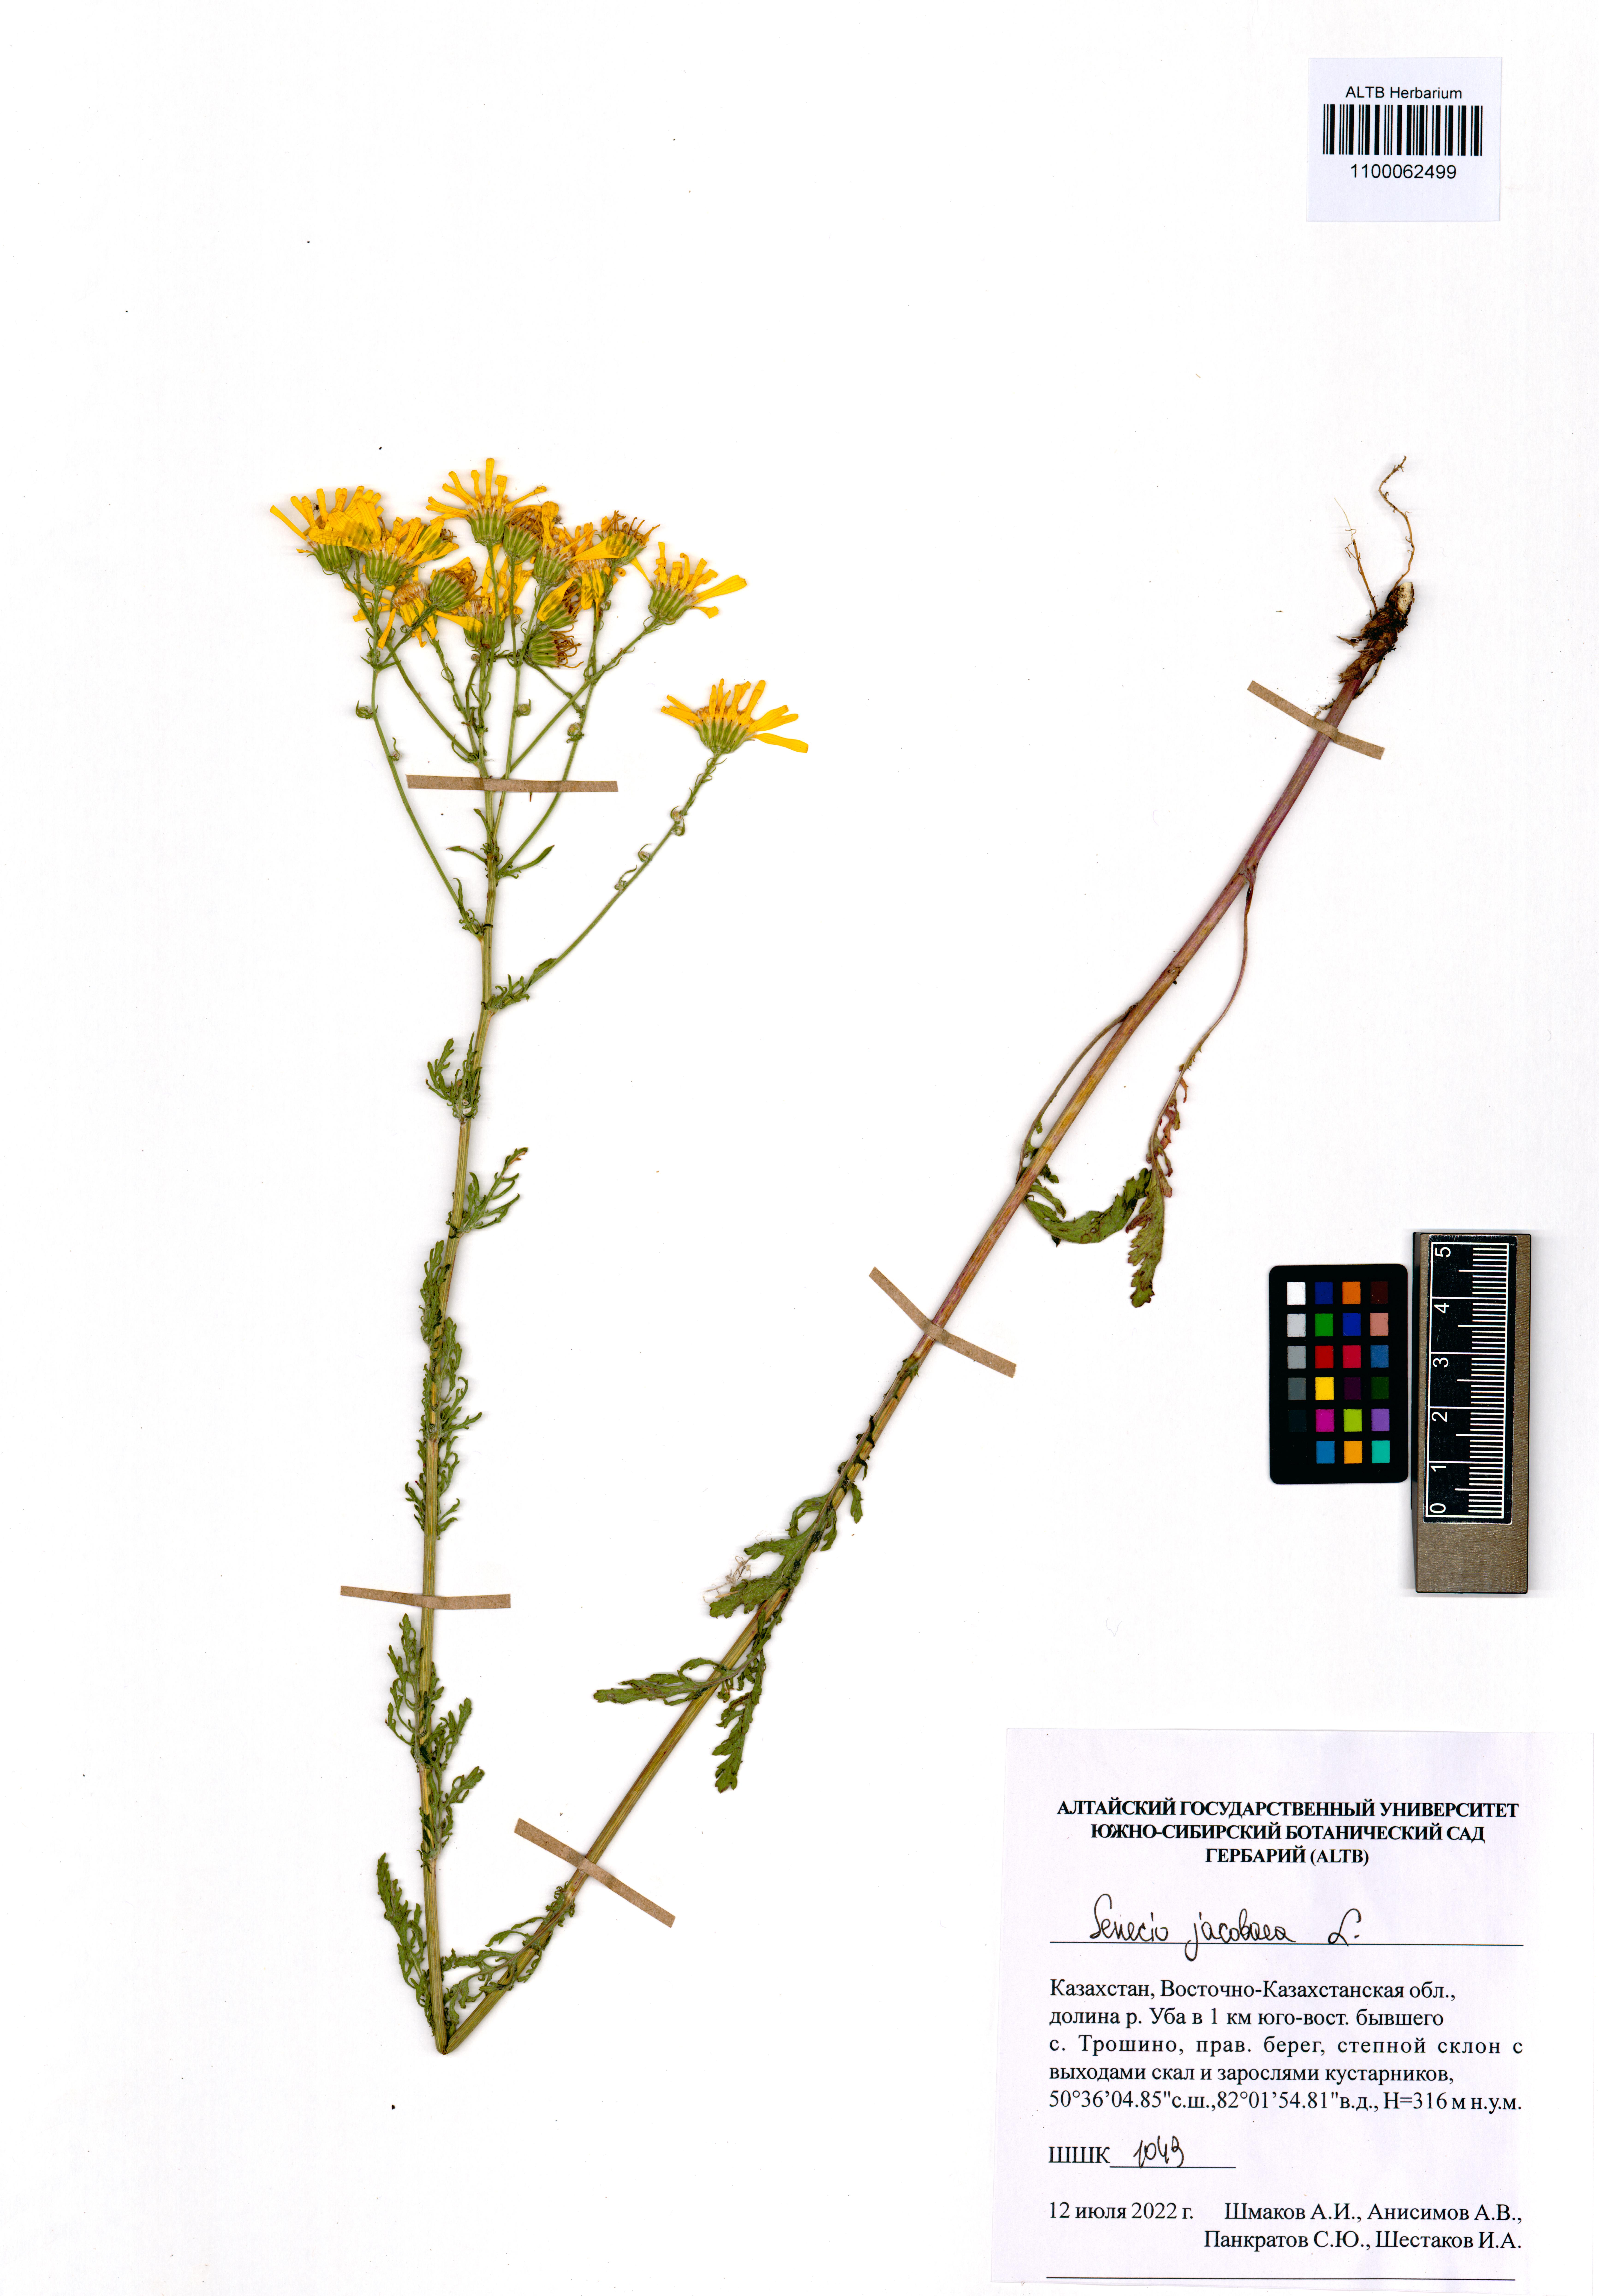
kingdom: Plantae
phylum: Tracheophyta
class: Magnoliopsida
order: Asterales
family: Asteraceae
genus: Jacobaea
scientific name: Jacobaea vulgaris
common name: Stinking willie
